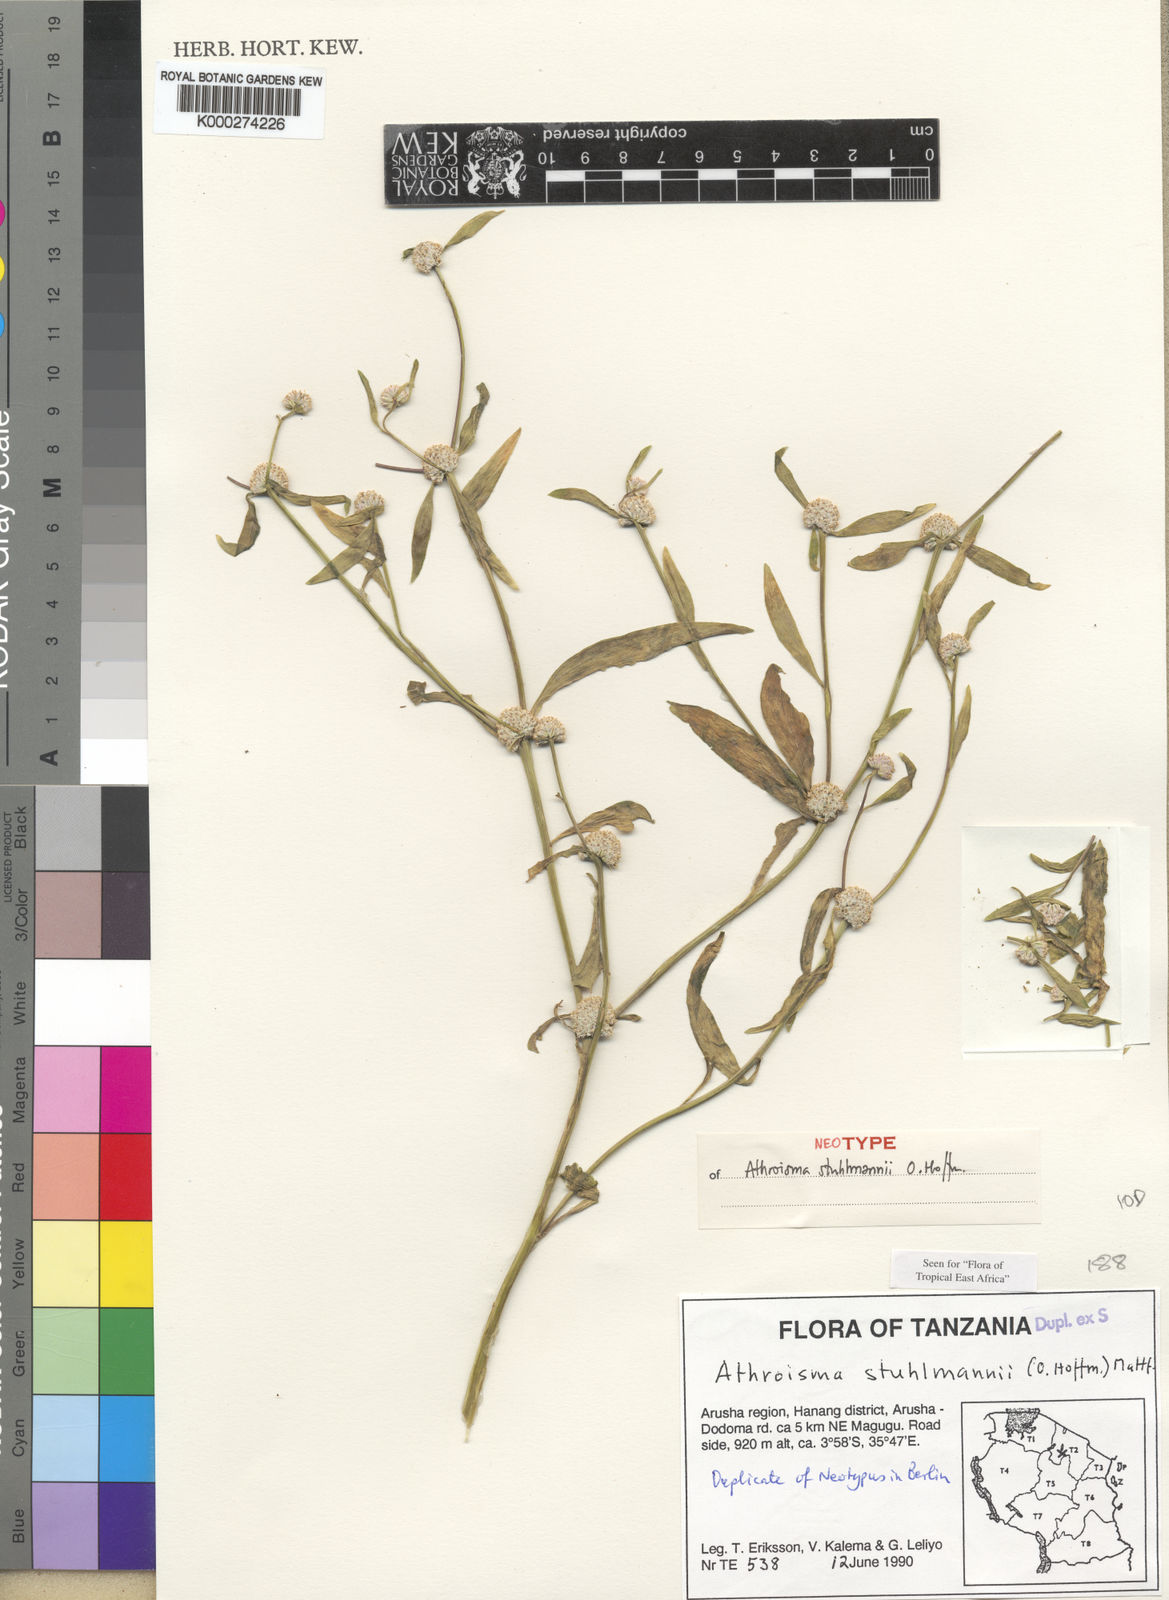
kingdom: Plantae
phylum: Tracheophyta
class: Magnoliopsida
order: Asterales
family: Asteraceae
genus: Athroisma
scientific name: Athroisma stuhlmannii
